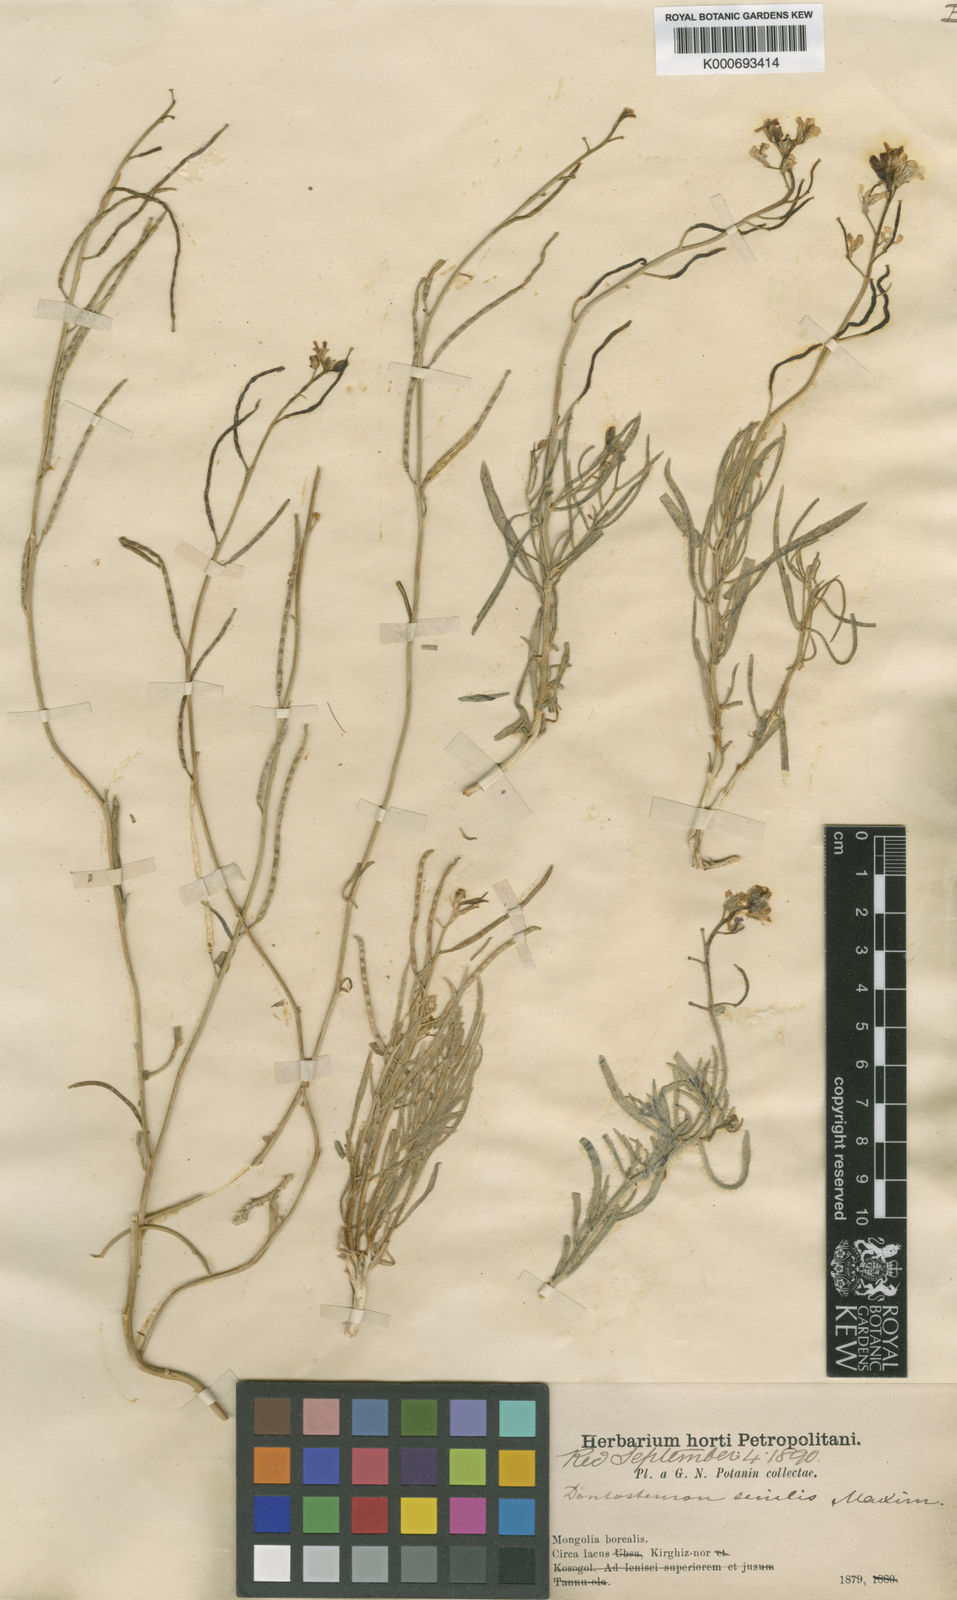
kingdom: Plantae
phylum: Tracheophyta
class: Magnoliopsida
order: Brassicales
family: Brassicaceae
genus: Dontostemon
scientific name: Dontostemon senilis
